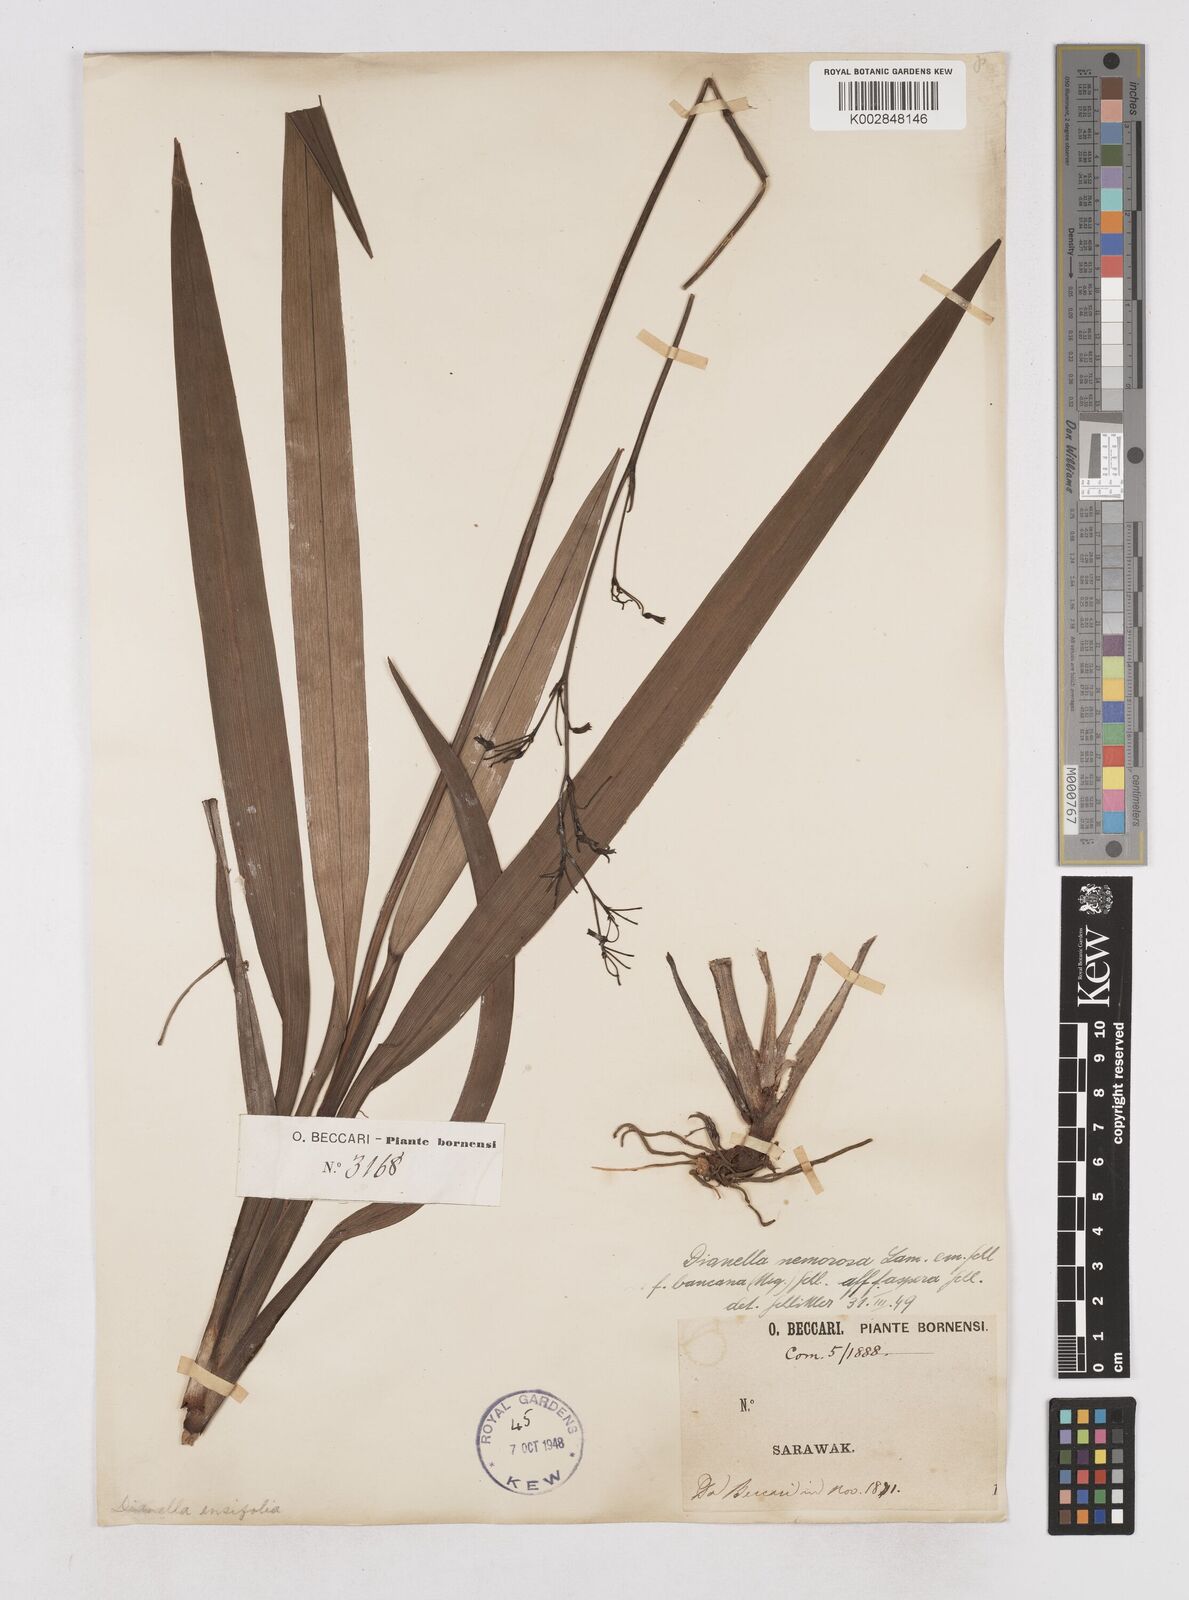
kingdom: Plantae
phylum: Tracheophyta
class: Liliopsida
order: Asparagales
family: Asphodelaceae
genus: Dianella
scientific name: Dianella ensifolia
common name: New zealand lilyplant
